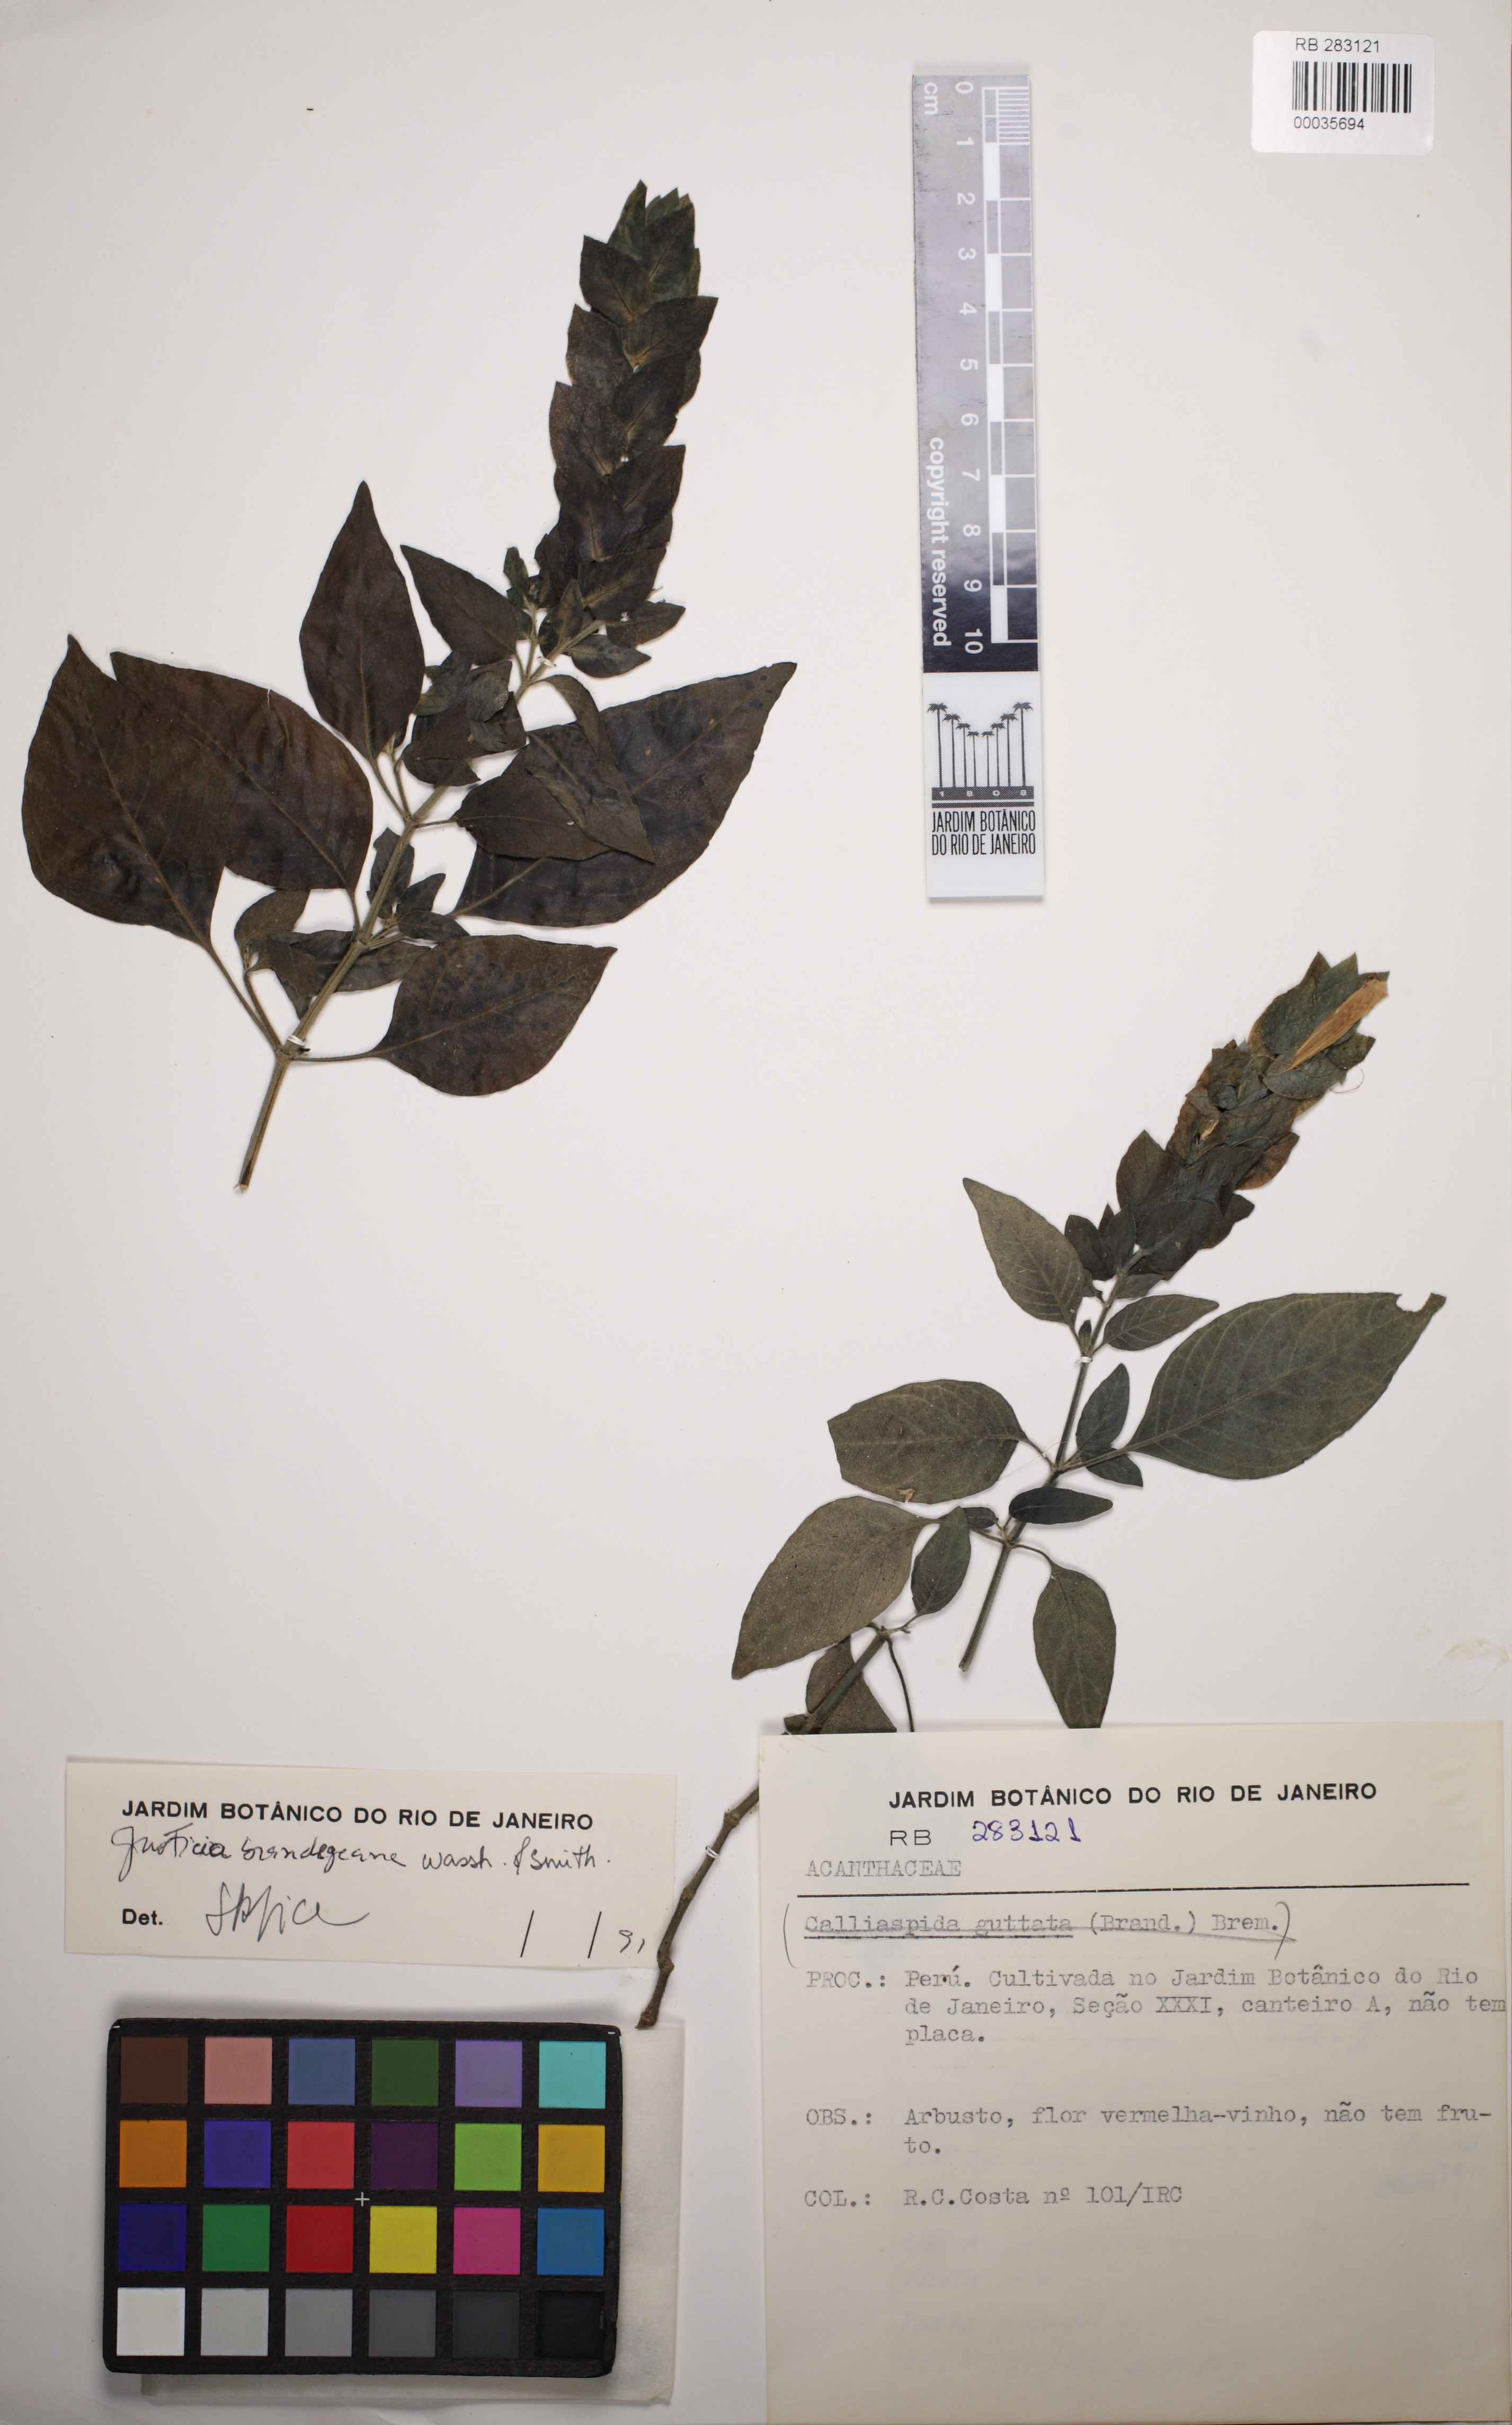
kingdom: Plantae
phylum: Tracheophyta
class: Magnoliopsida
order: Lamiales
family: Acanthaceae
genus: Justicia
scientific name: Justicia brandegeeana
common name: Shrimpplant
